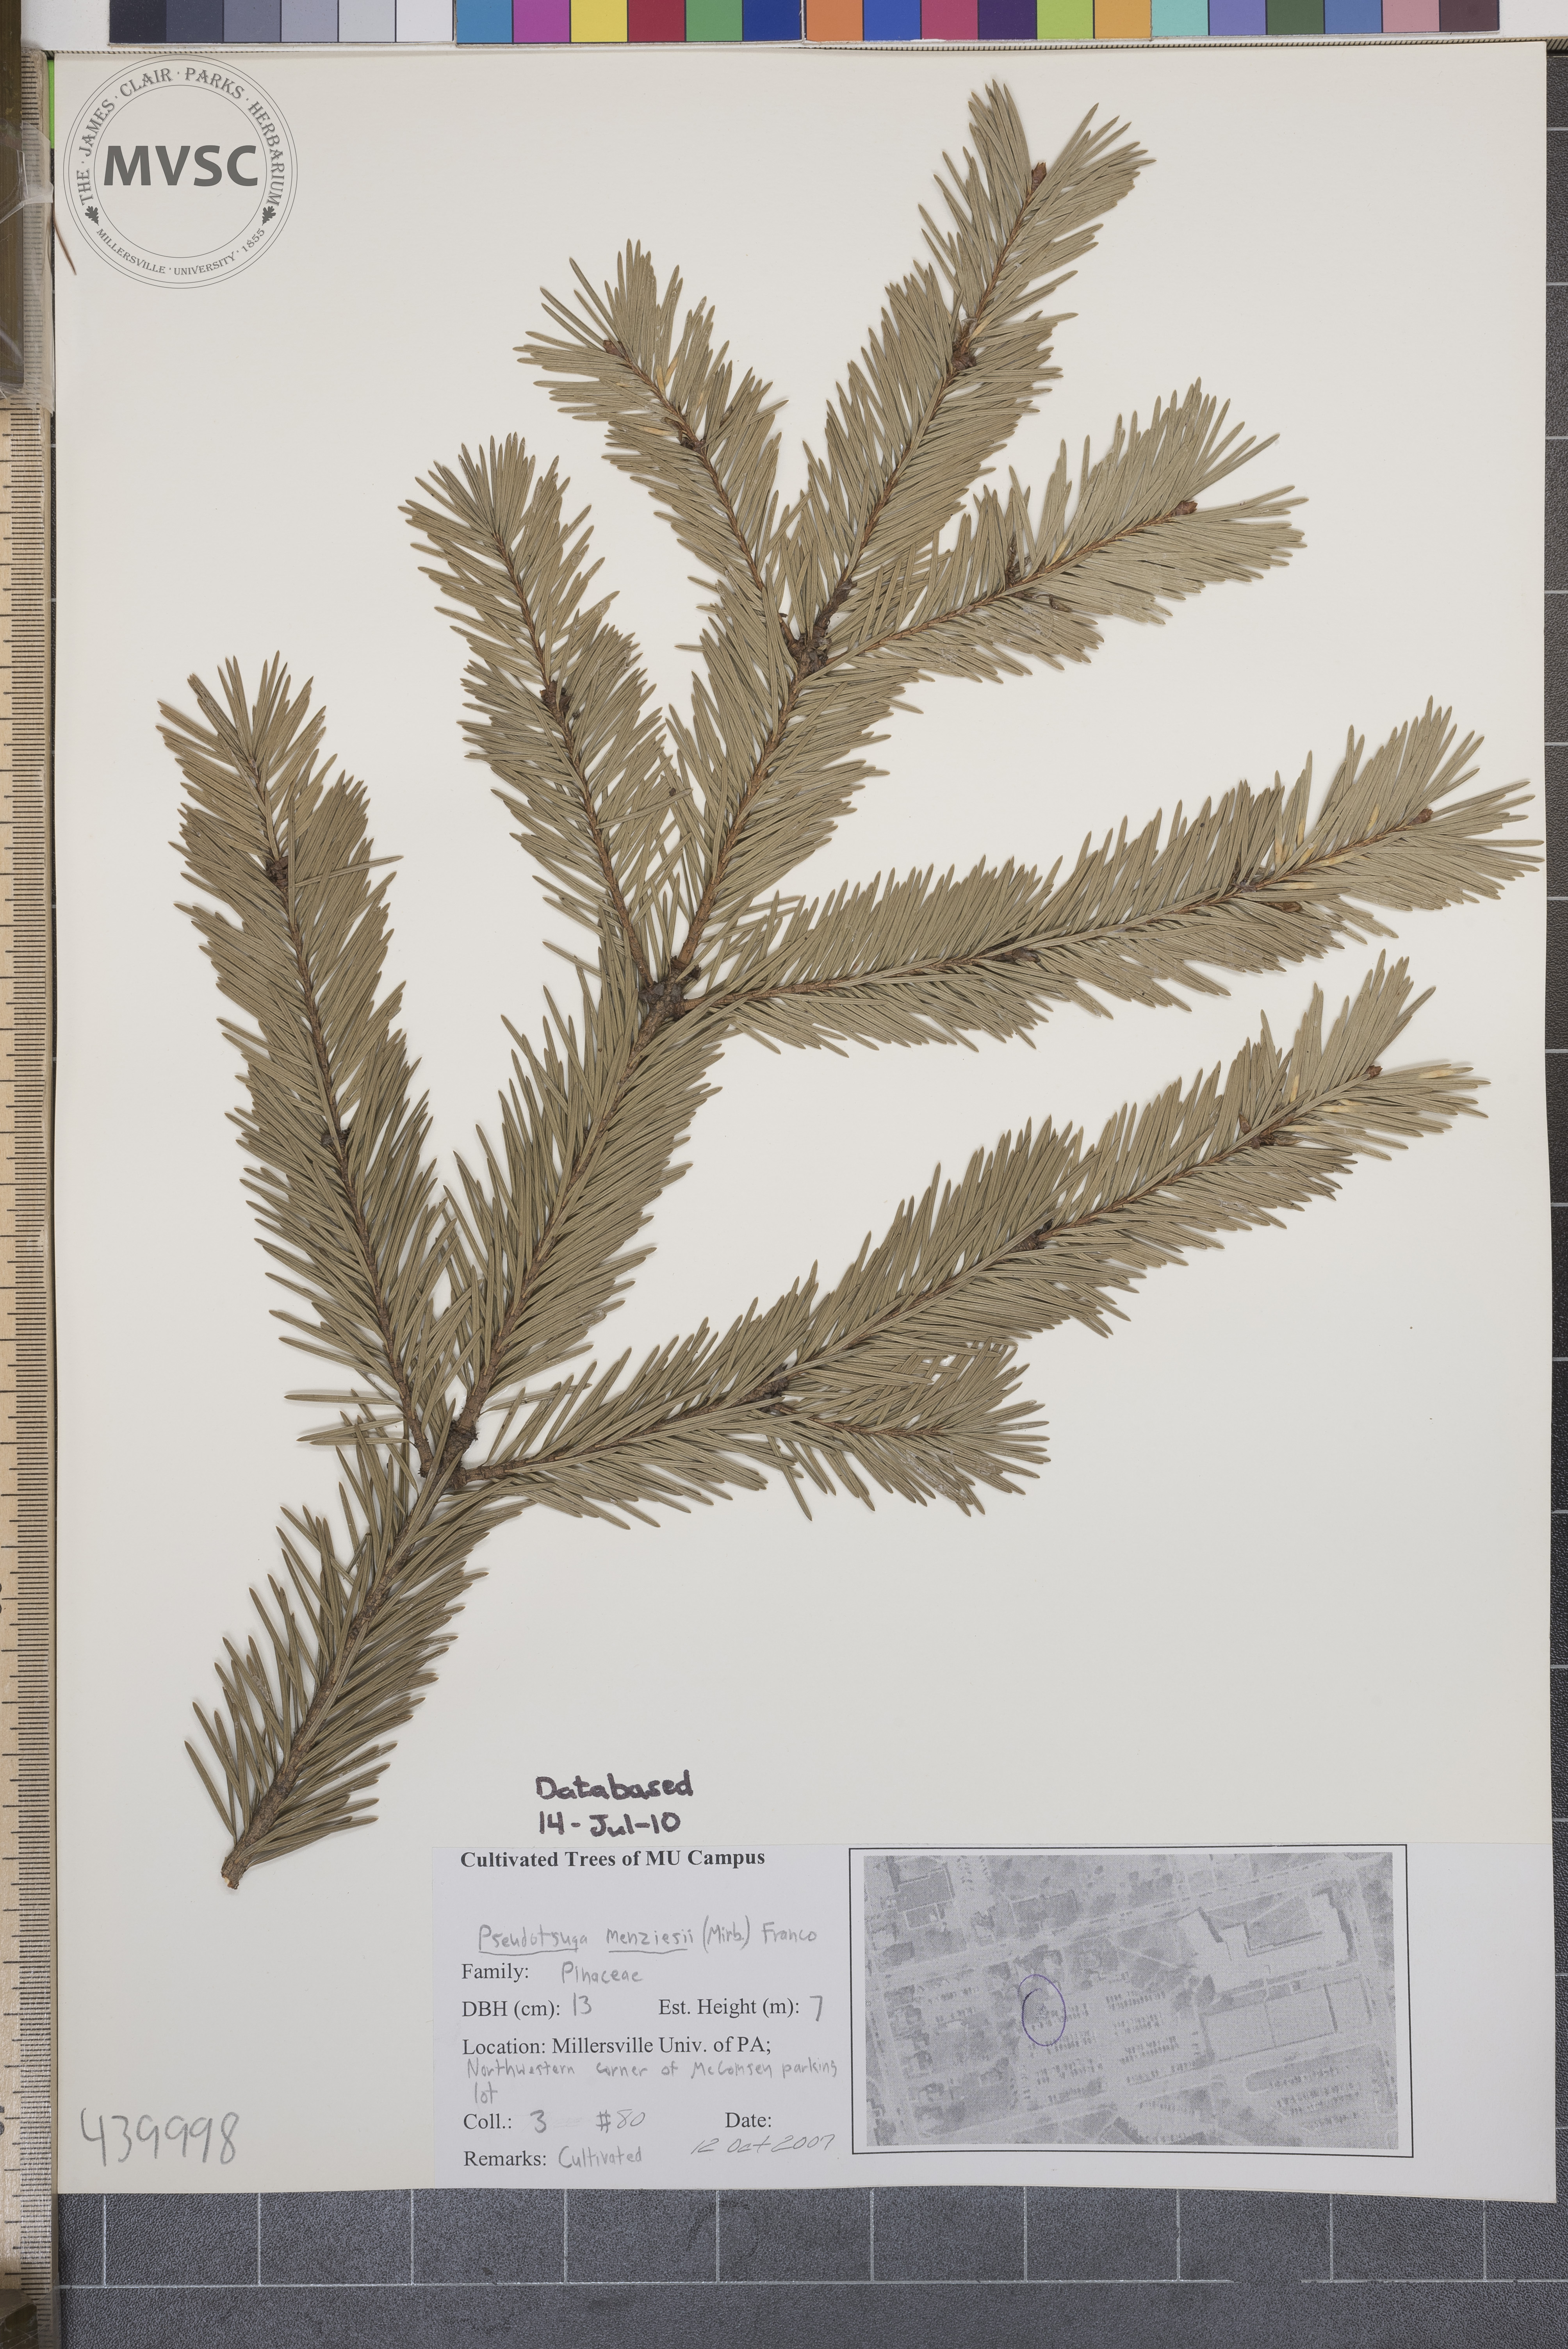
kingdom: Plantae
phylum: Tracheophyta
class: Pinopsida
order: Pinales
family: Pinaceae
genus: Pseudotsuga
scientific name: Pseudotsuga menziesii
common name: Douglas fir
